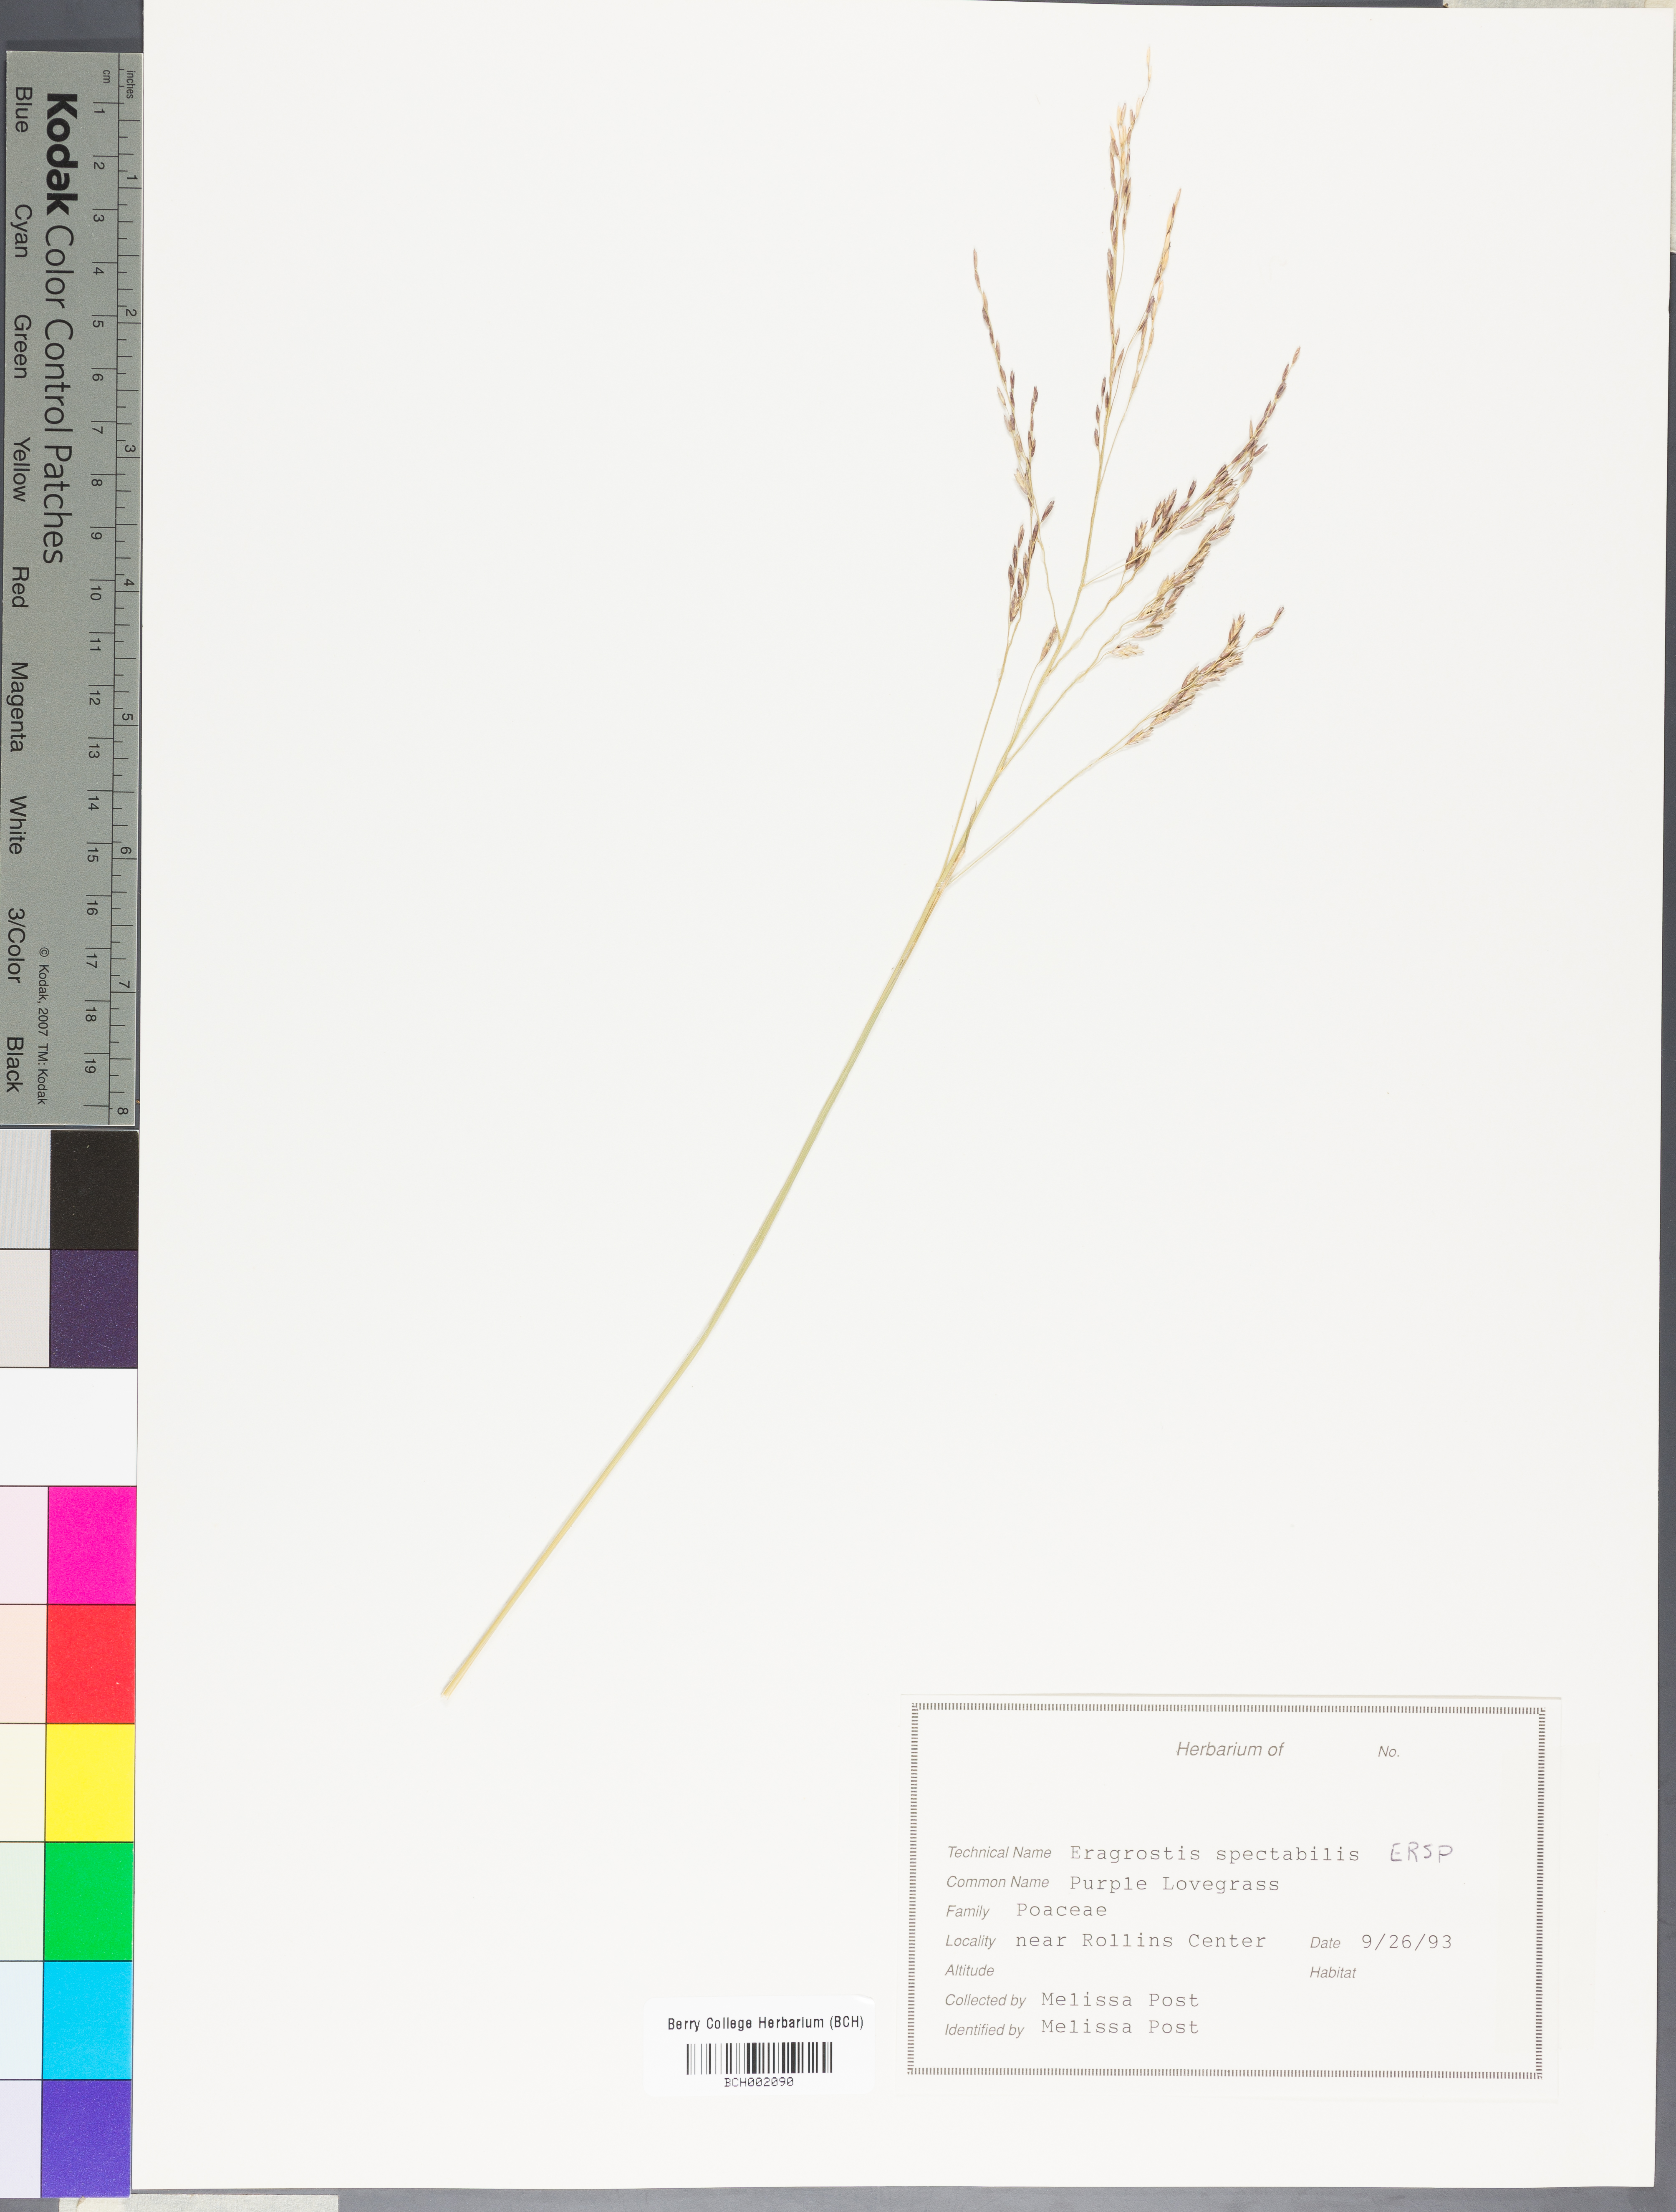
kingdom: Plantae
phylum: Tracheophyta
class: Liliopsida
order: Poales
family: Poaceae
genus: Eragrostis
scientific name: Eragrostis spectabilis
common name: Petticoat-climber
